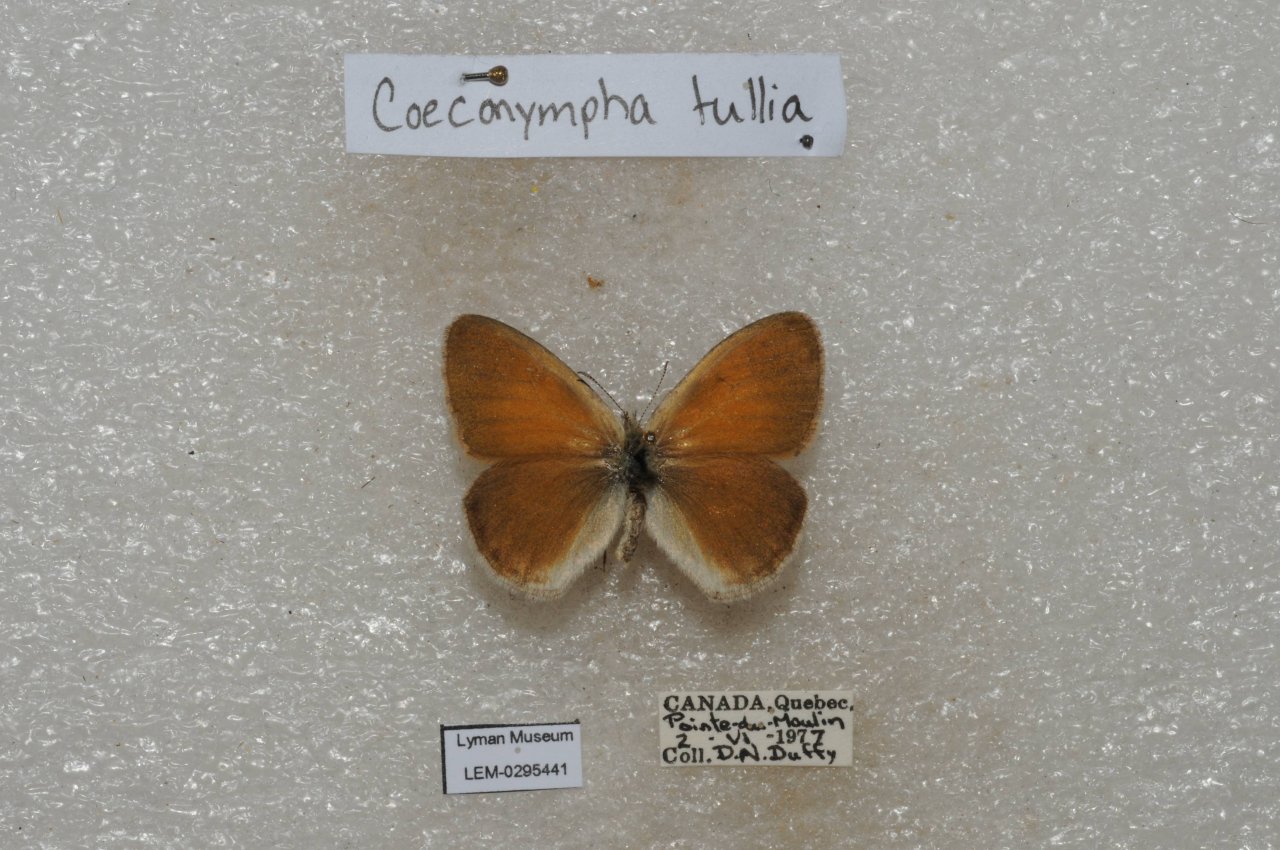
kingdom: Animalia
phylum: Arthropoda
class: Insecta
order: Lepidoptera
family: Nymphalidae
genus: Coenonympha
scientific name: Coenonympha tullia
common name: Large Heath
